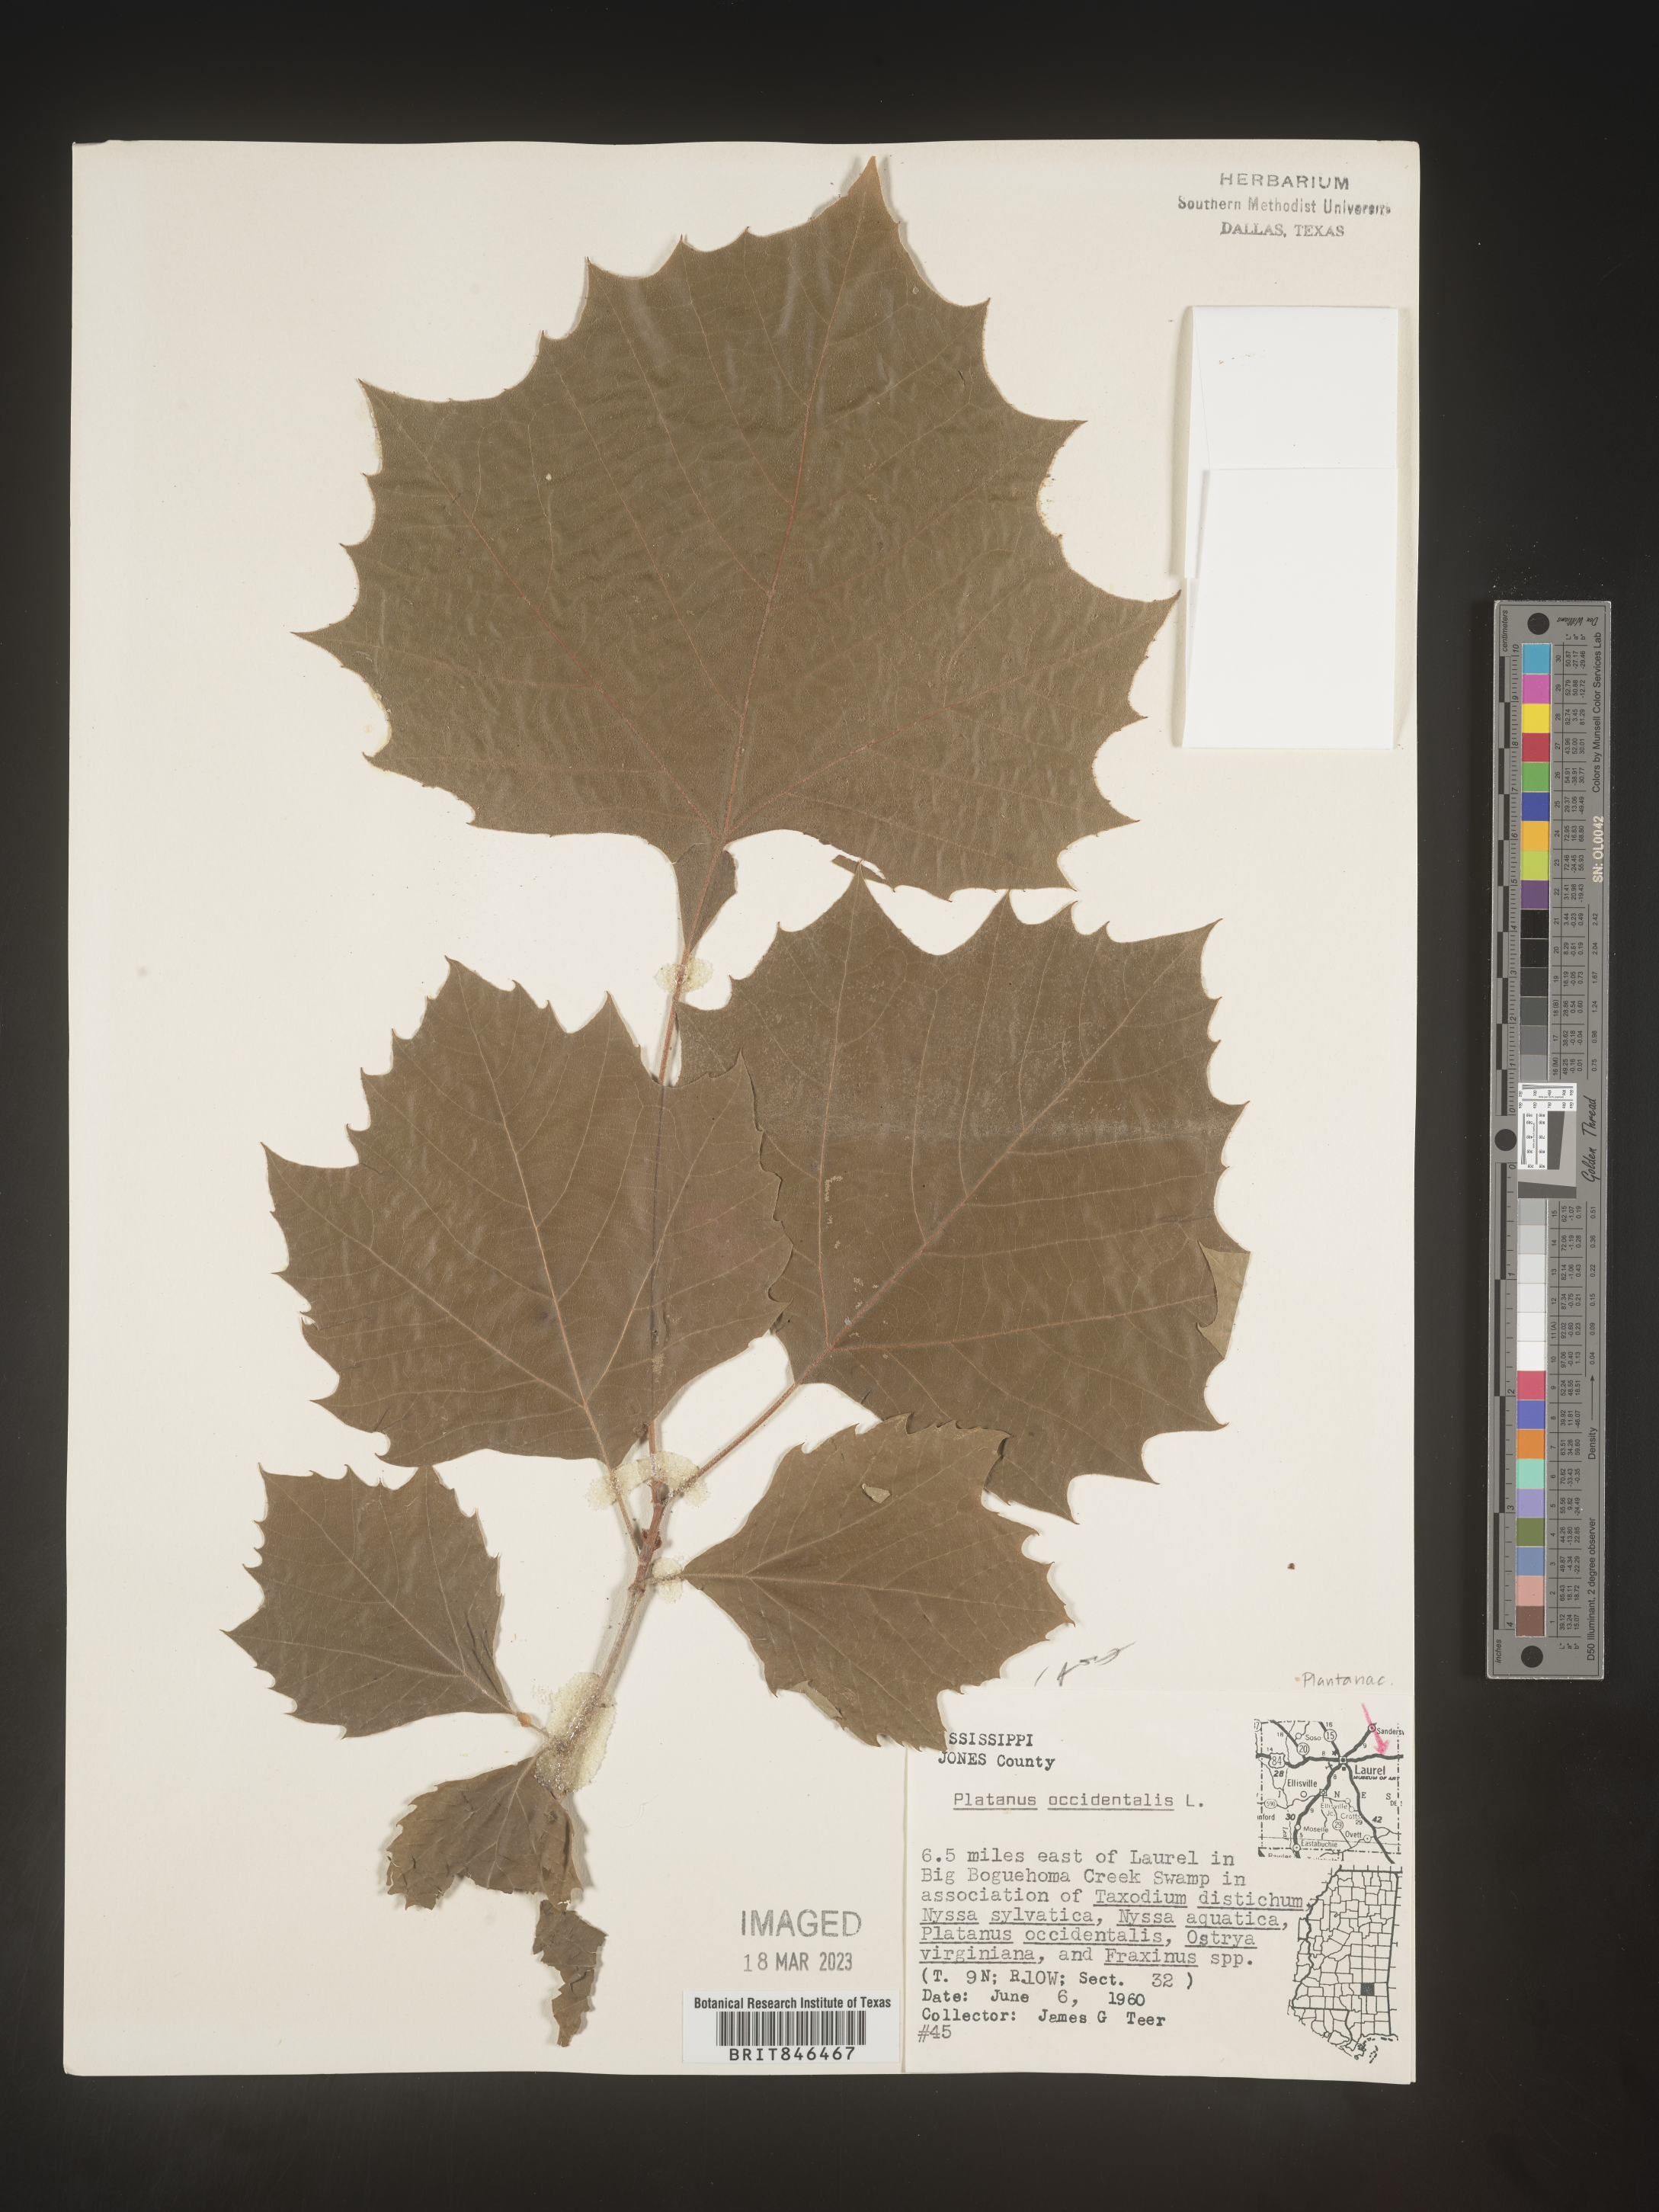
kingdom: Plantae
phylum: Tracheophyta
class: Magnoliopsida
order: Proteales
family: Platanaceae
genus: Platanus
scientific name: Platanus occidentalis
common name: American sycamore
